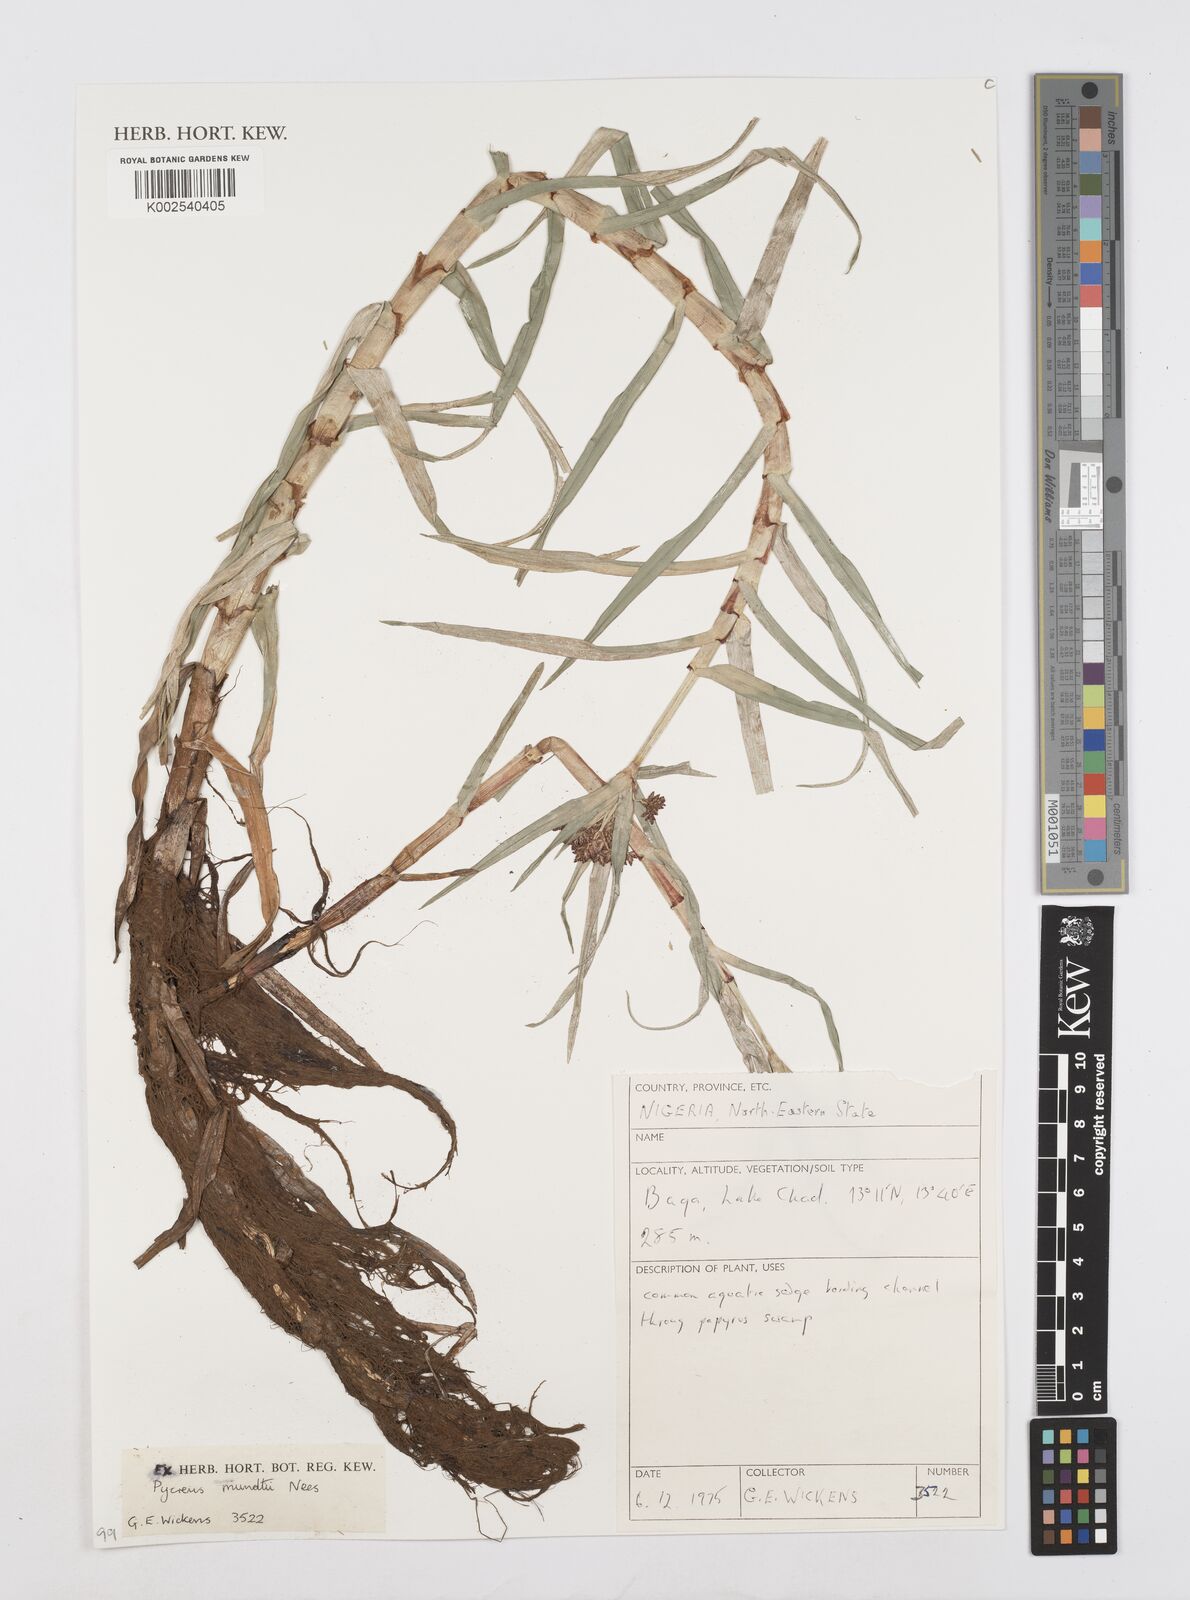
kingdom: Plantae
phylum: Tracheophyta
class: Liliopsida
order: Poales
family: Cyperaceae
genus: Cyperus
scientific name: Cyperus mundii
